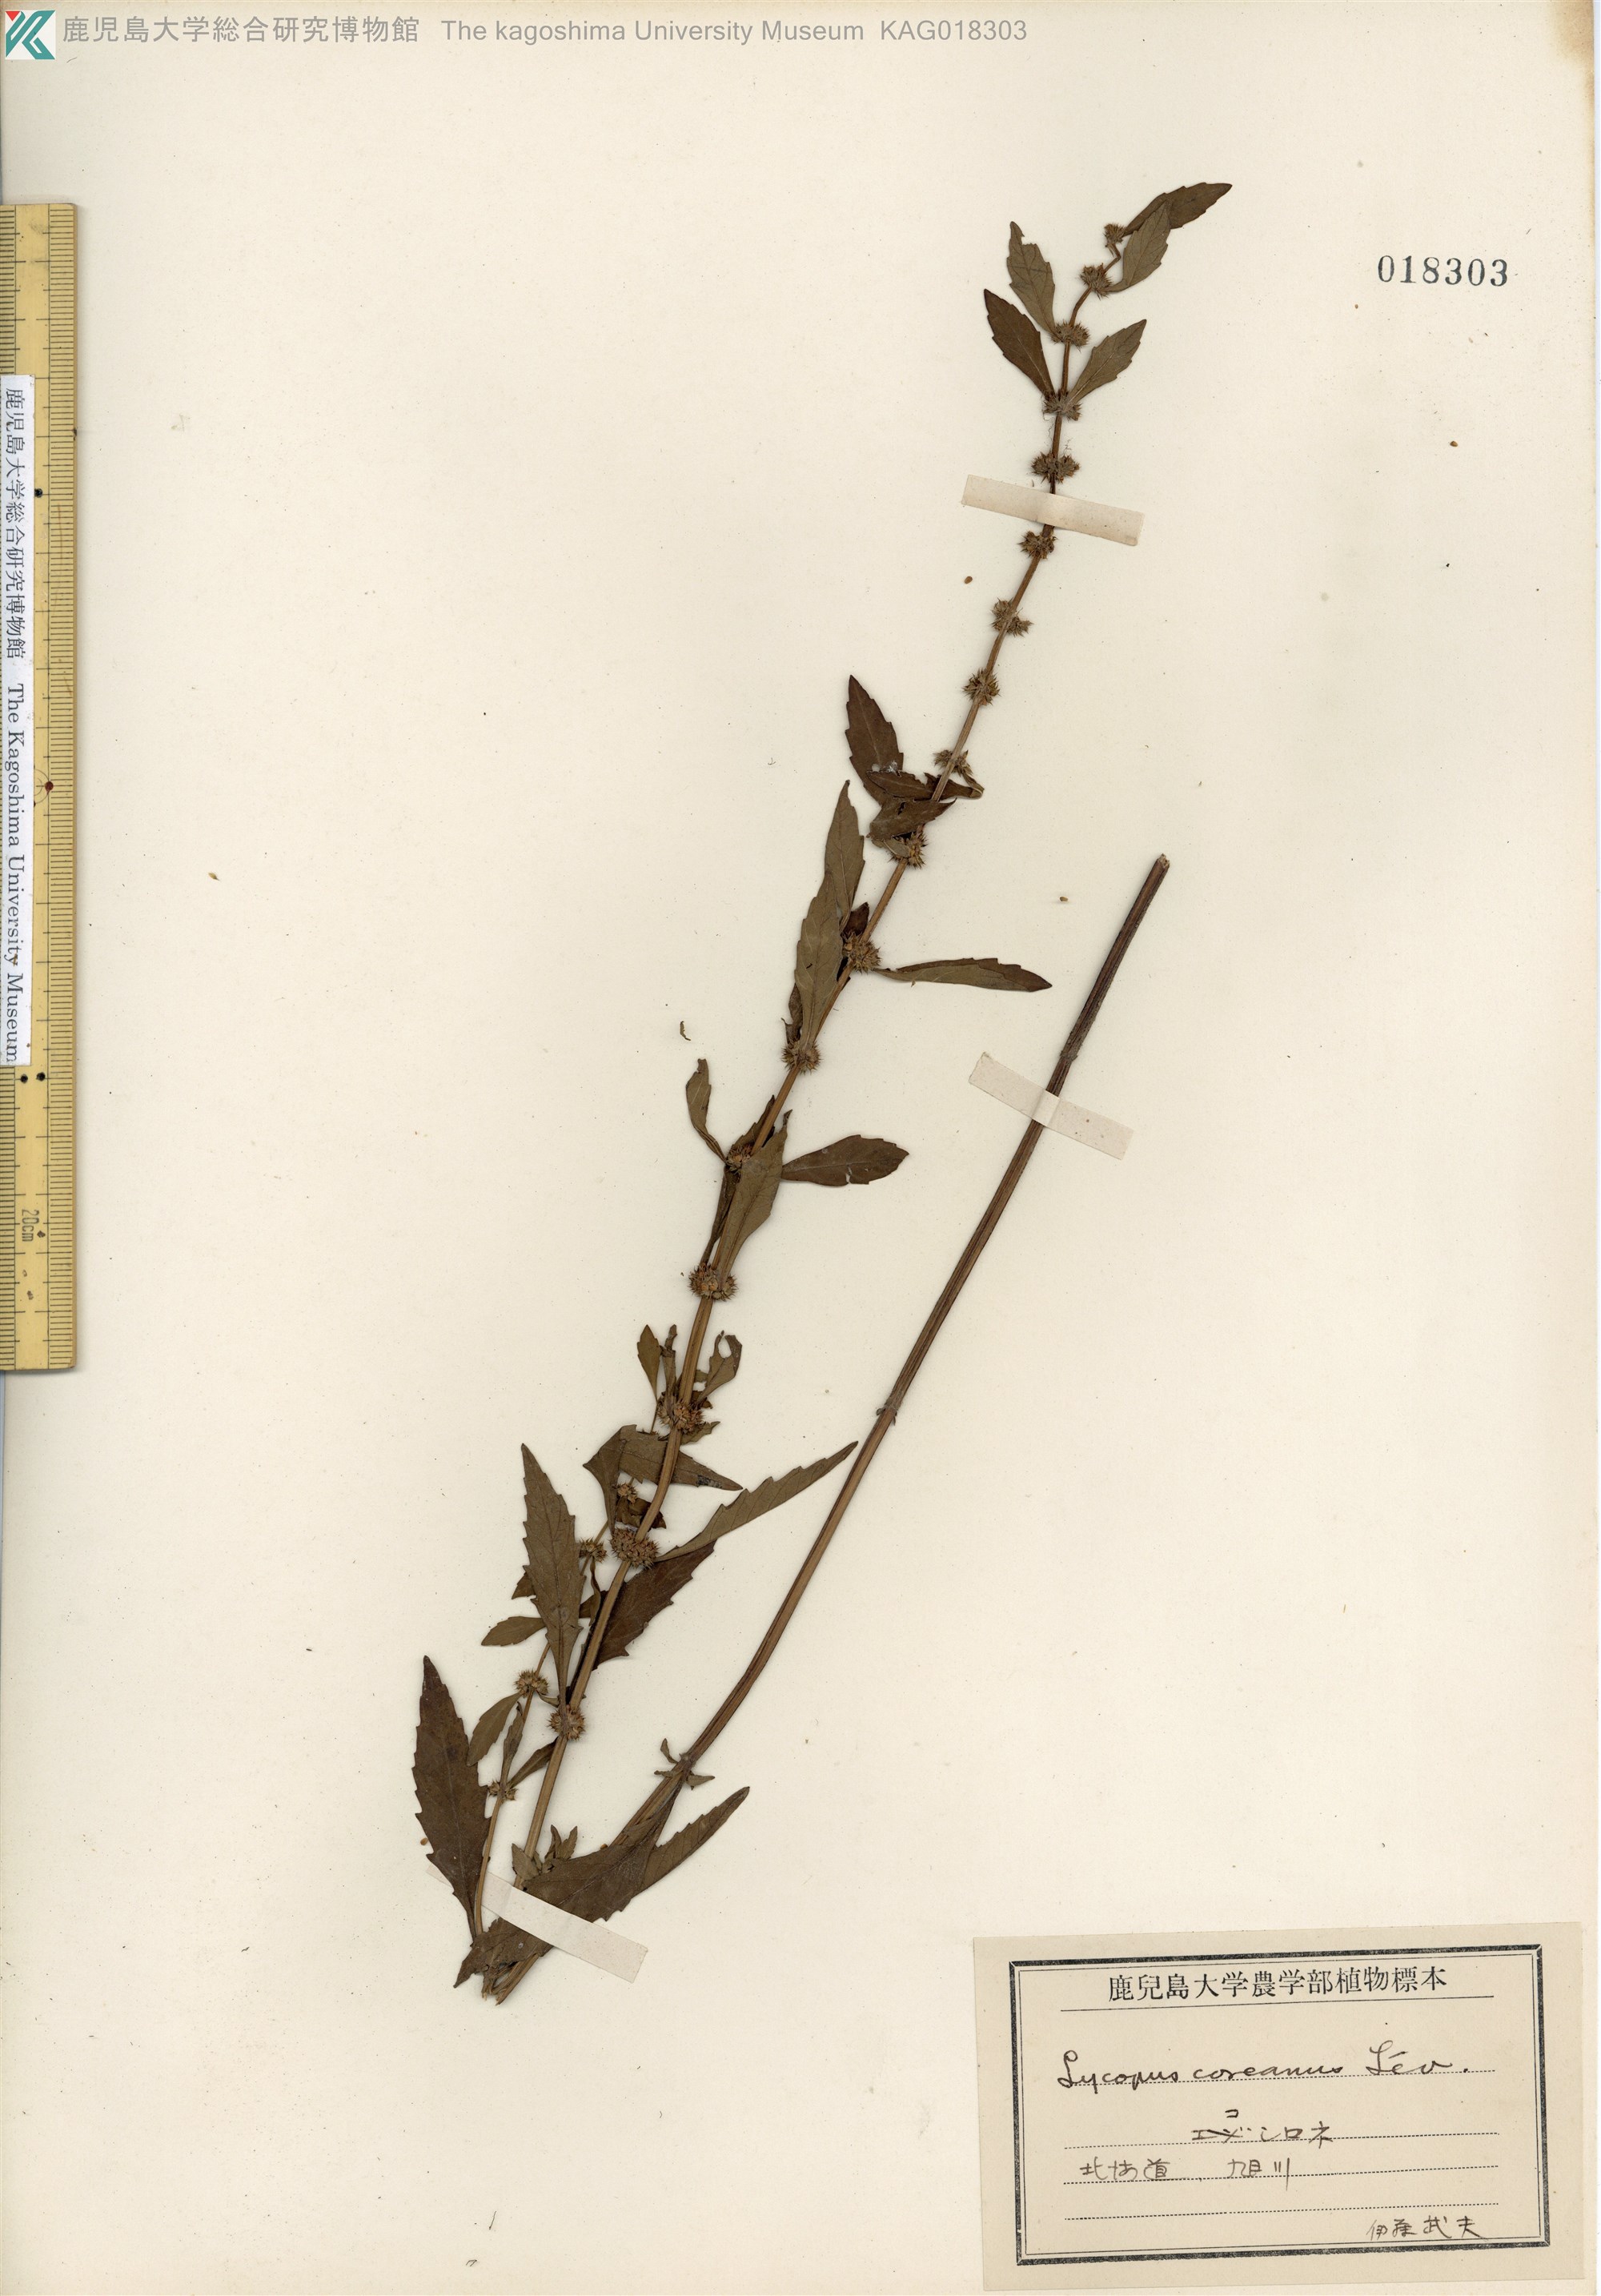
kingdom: Plantae
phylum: Tracheophyta
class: Magnoliopsida
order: Lamiales
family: Lamiaceae
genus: Lycopus
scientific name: Lycopus cavaleriei
